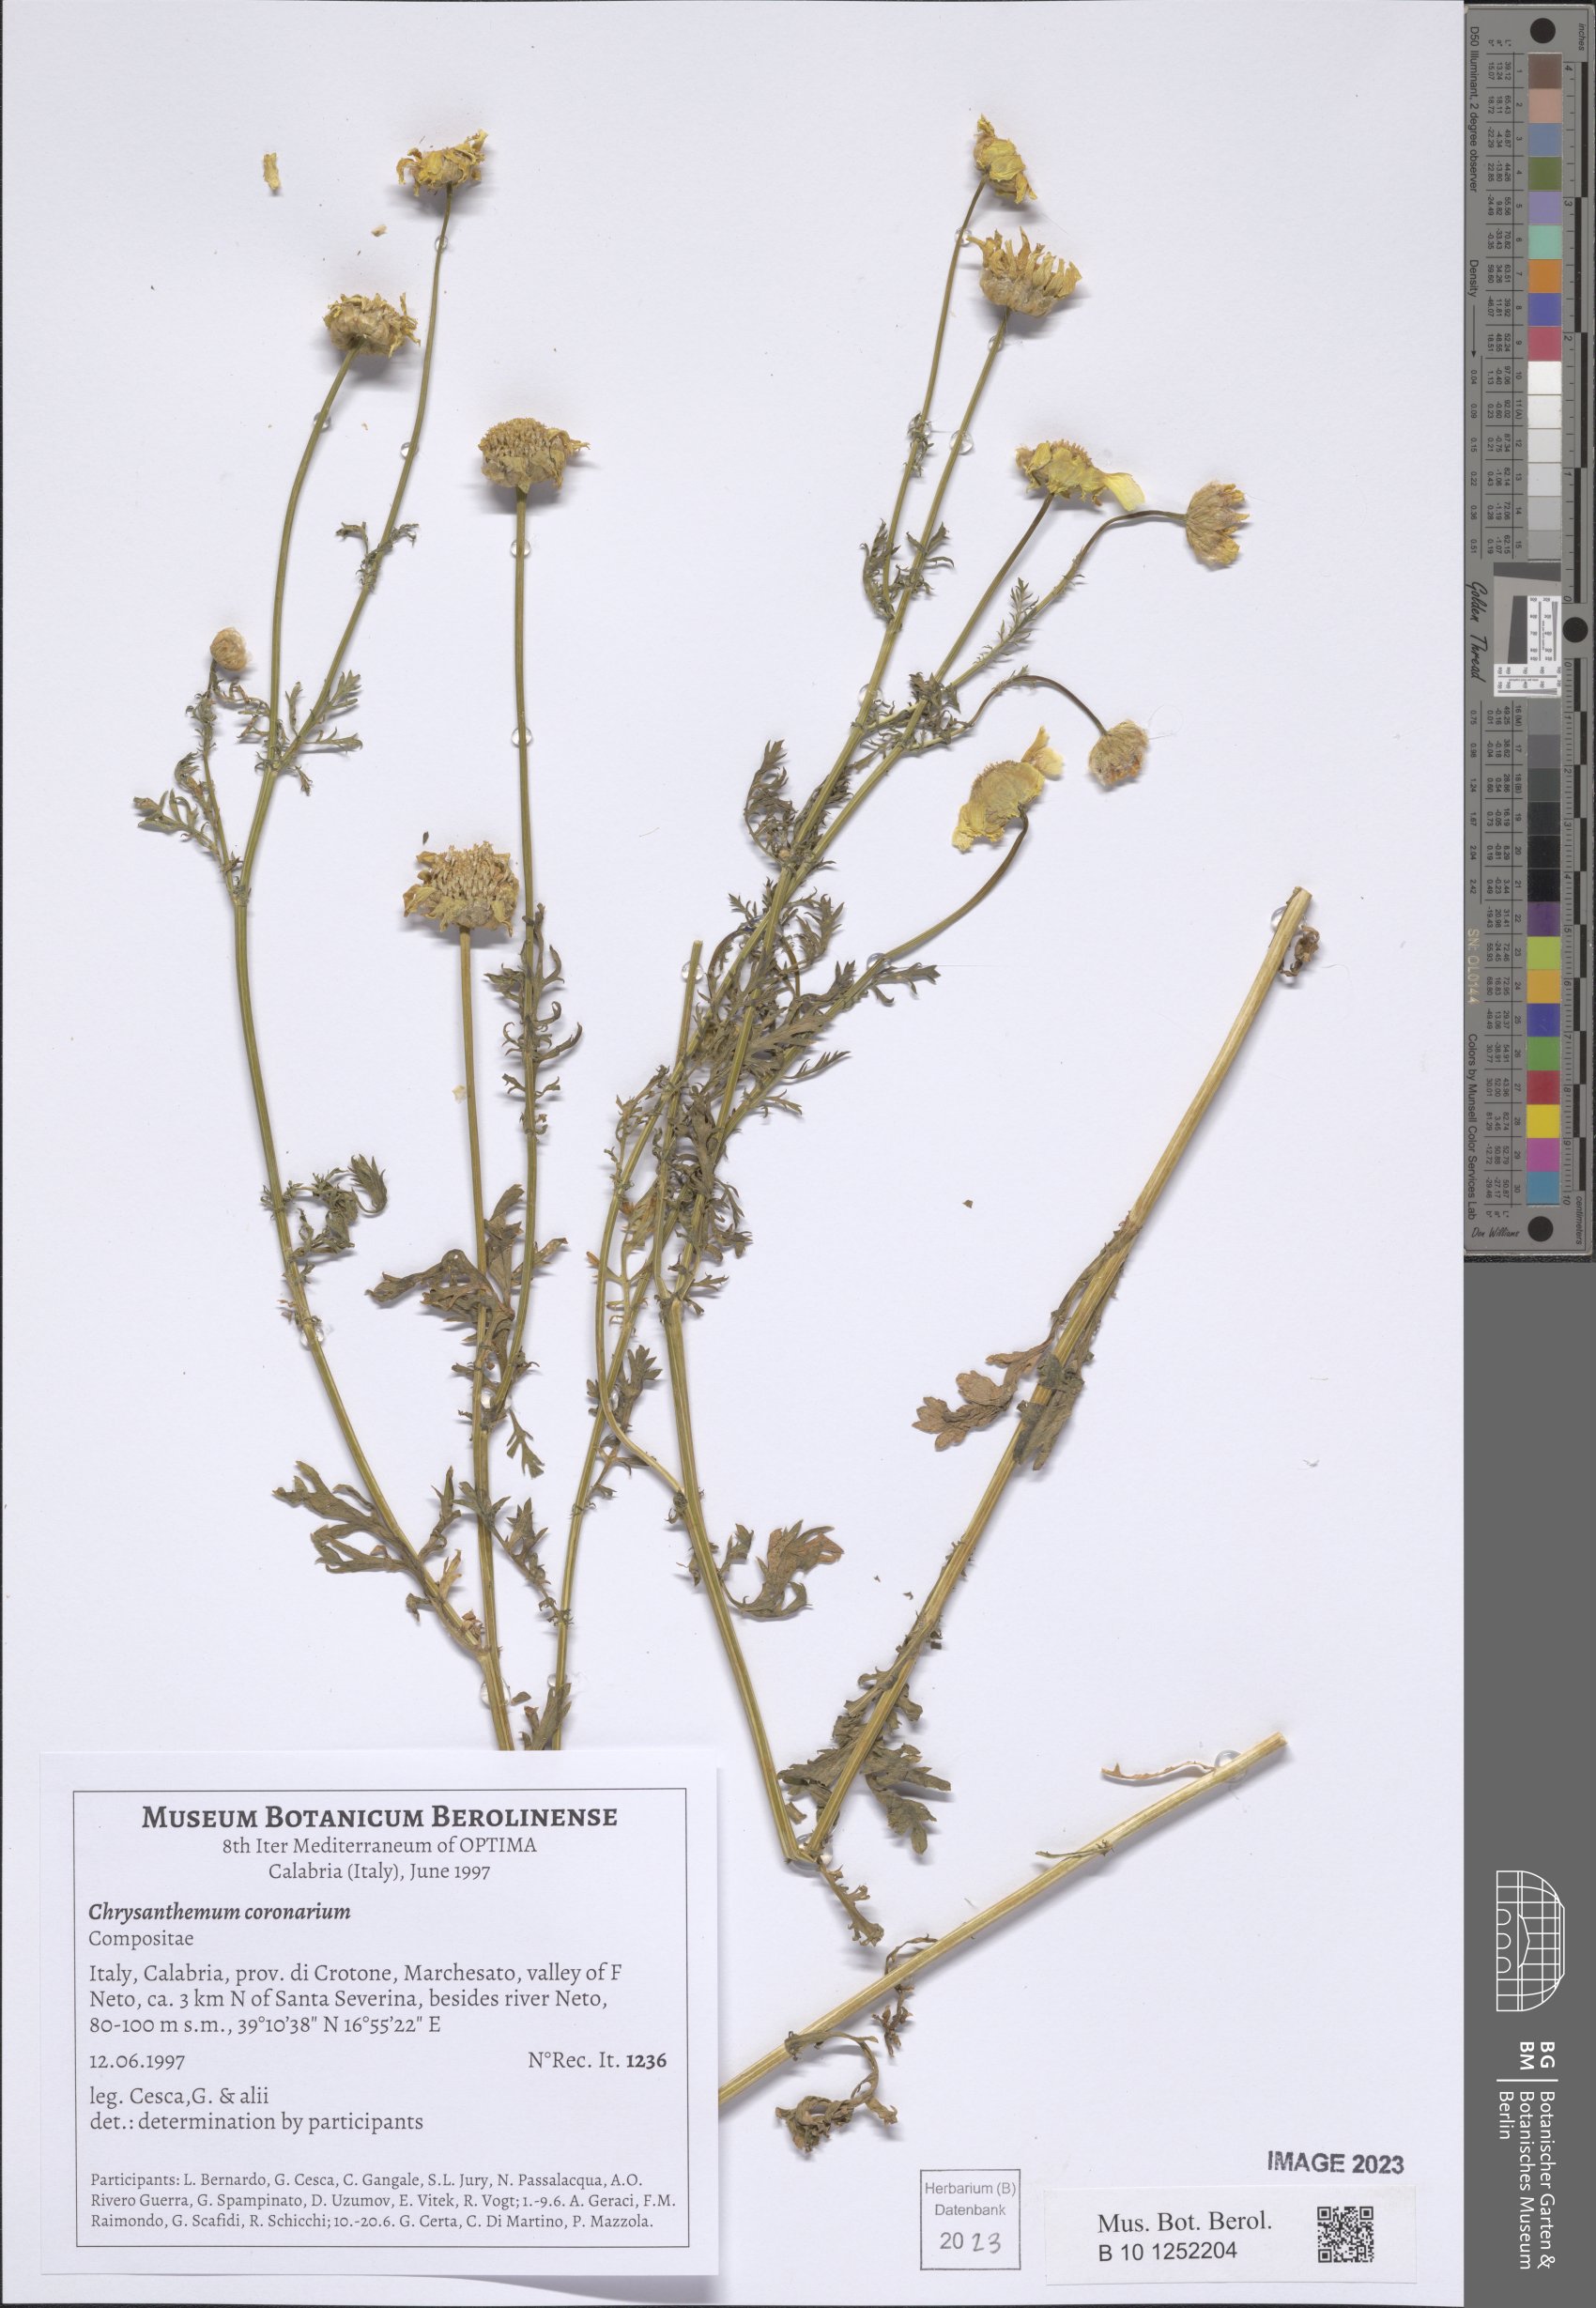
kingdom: Plantae
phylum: Tracheophyta
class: Magnoliopsida
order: Asterales
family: Asteraceae
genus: Glebionis
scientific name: Glebionis coronaria
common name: Crowndaisy
